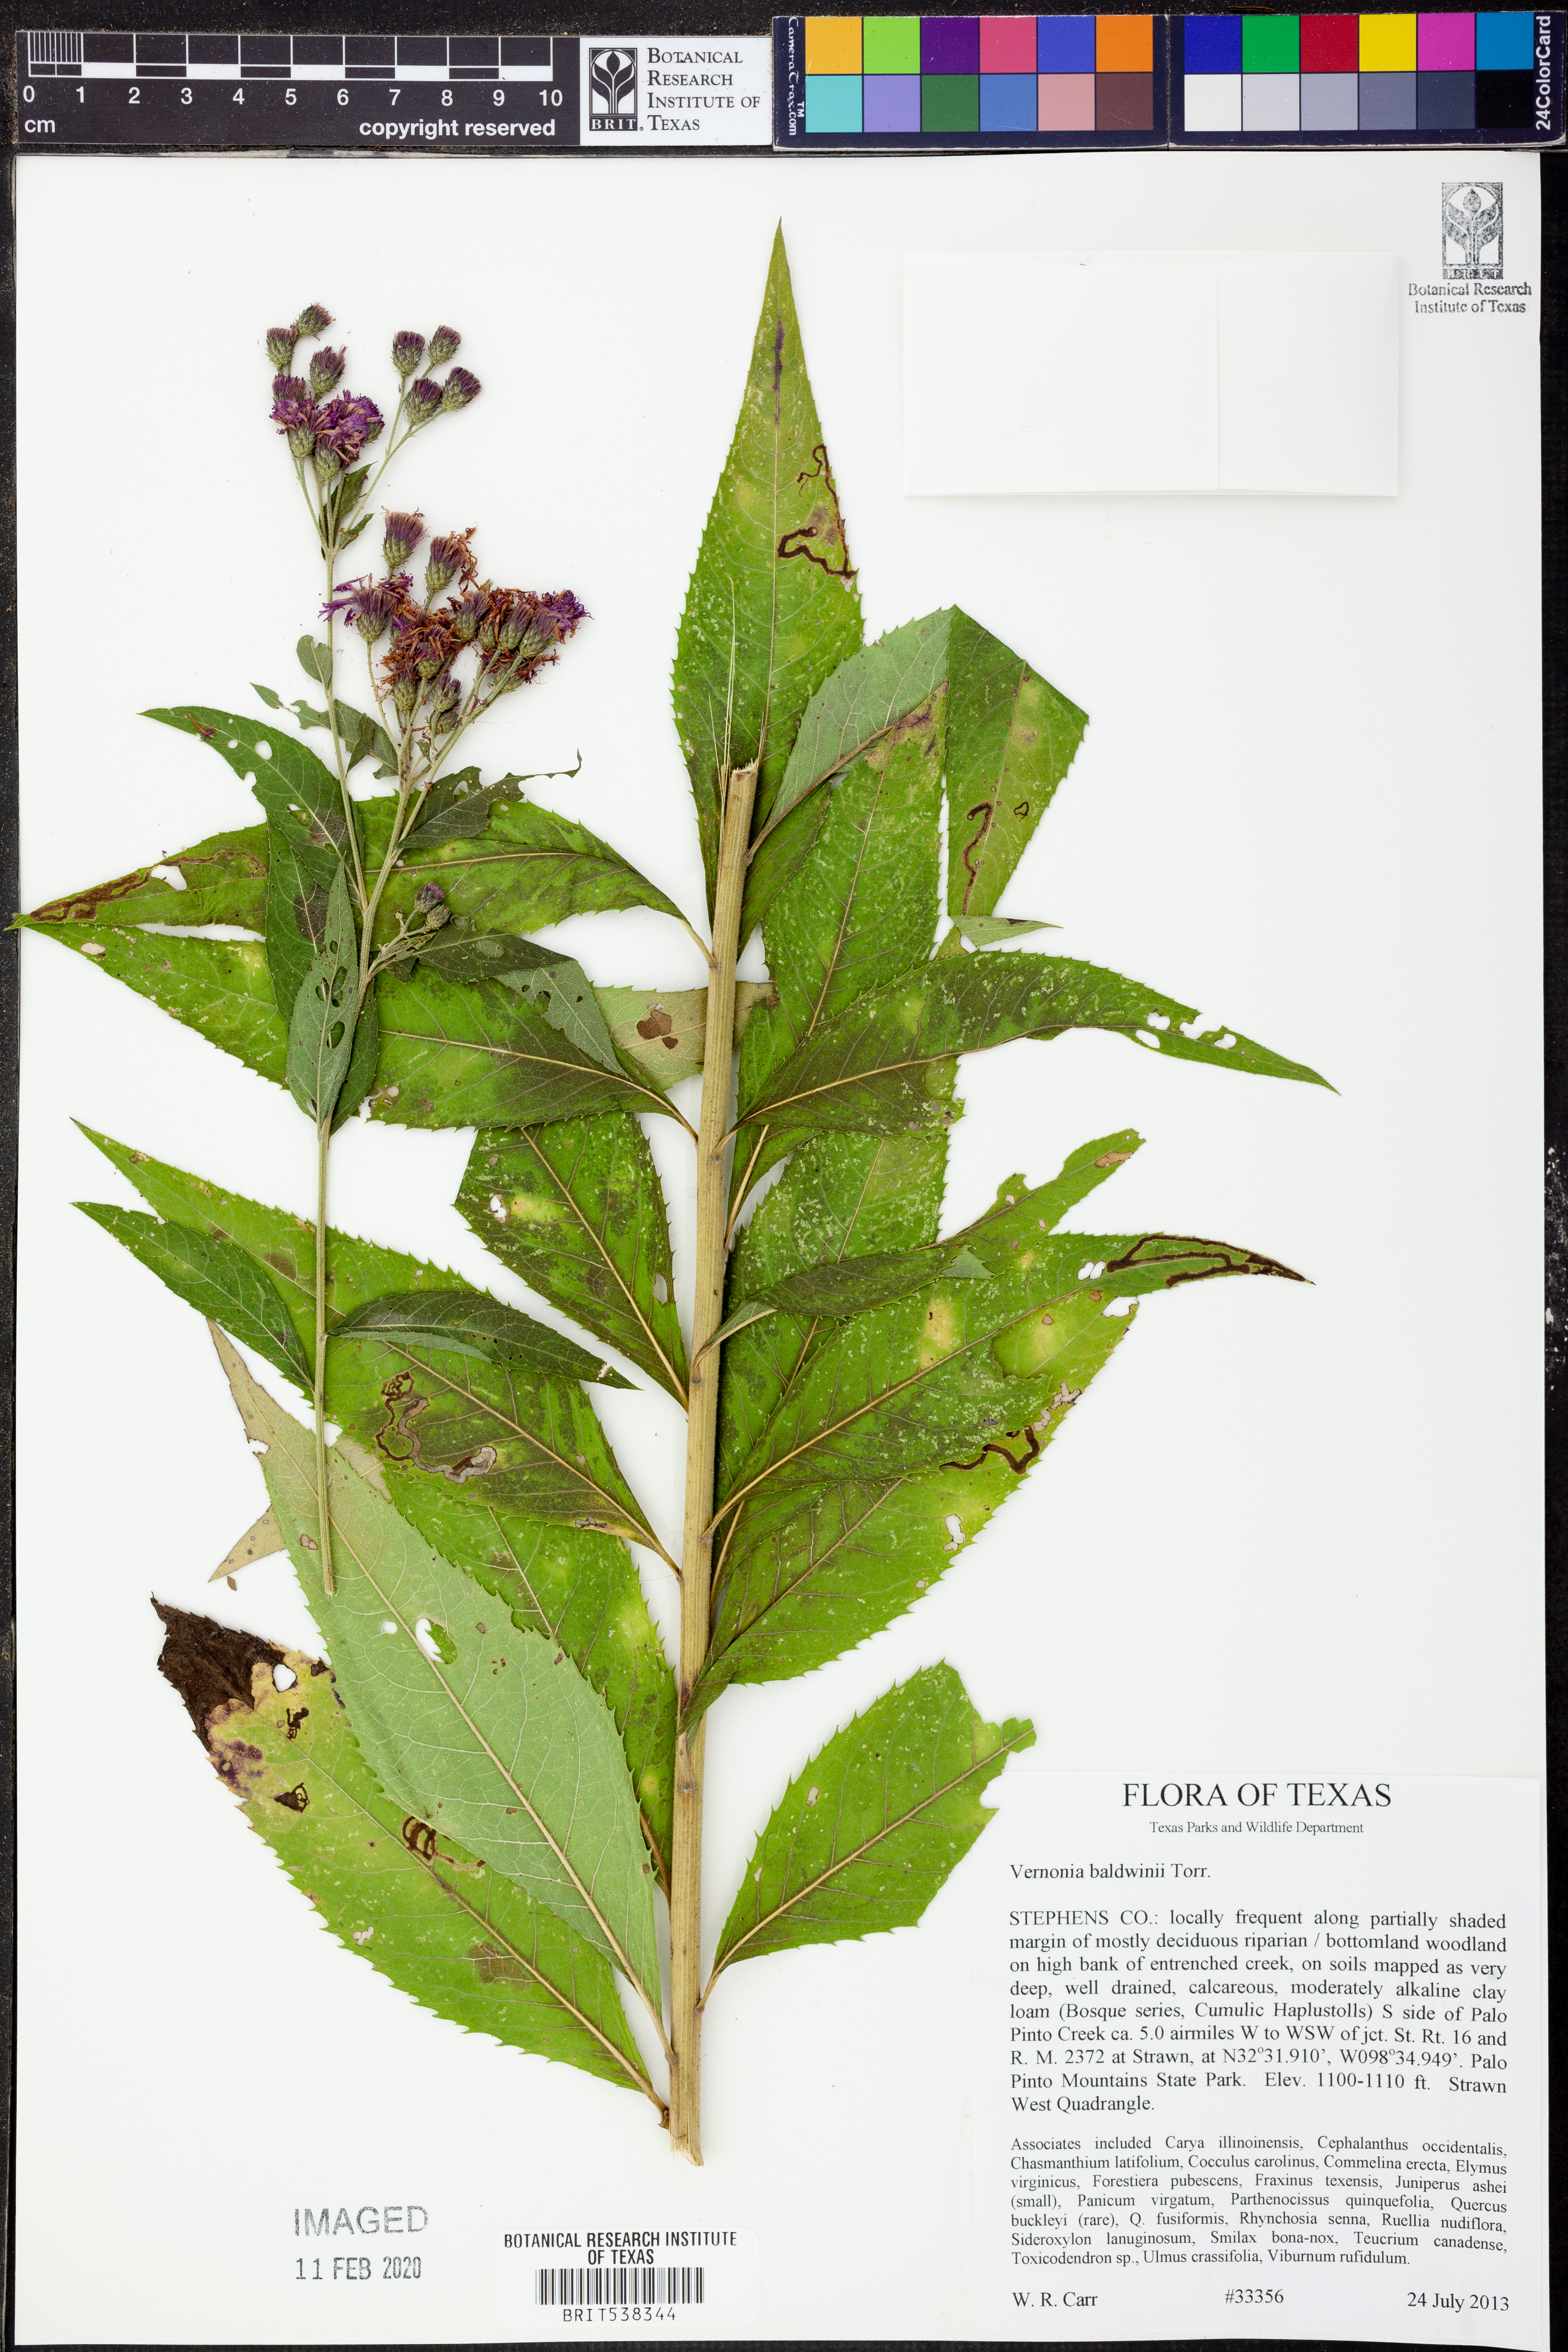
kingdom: Plantae
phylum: Tracheophyta
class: Magnoliopsida
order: Asterales
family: Asteraceae
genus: Vernonia
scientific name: Vernonia baldwinii
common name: Western ironweed
